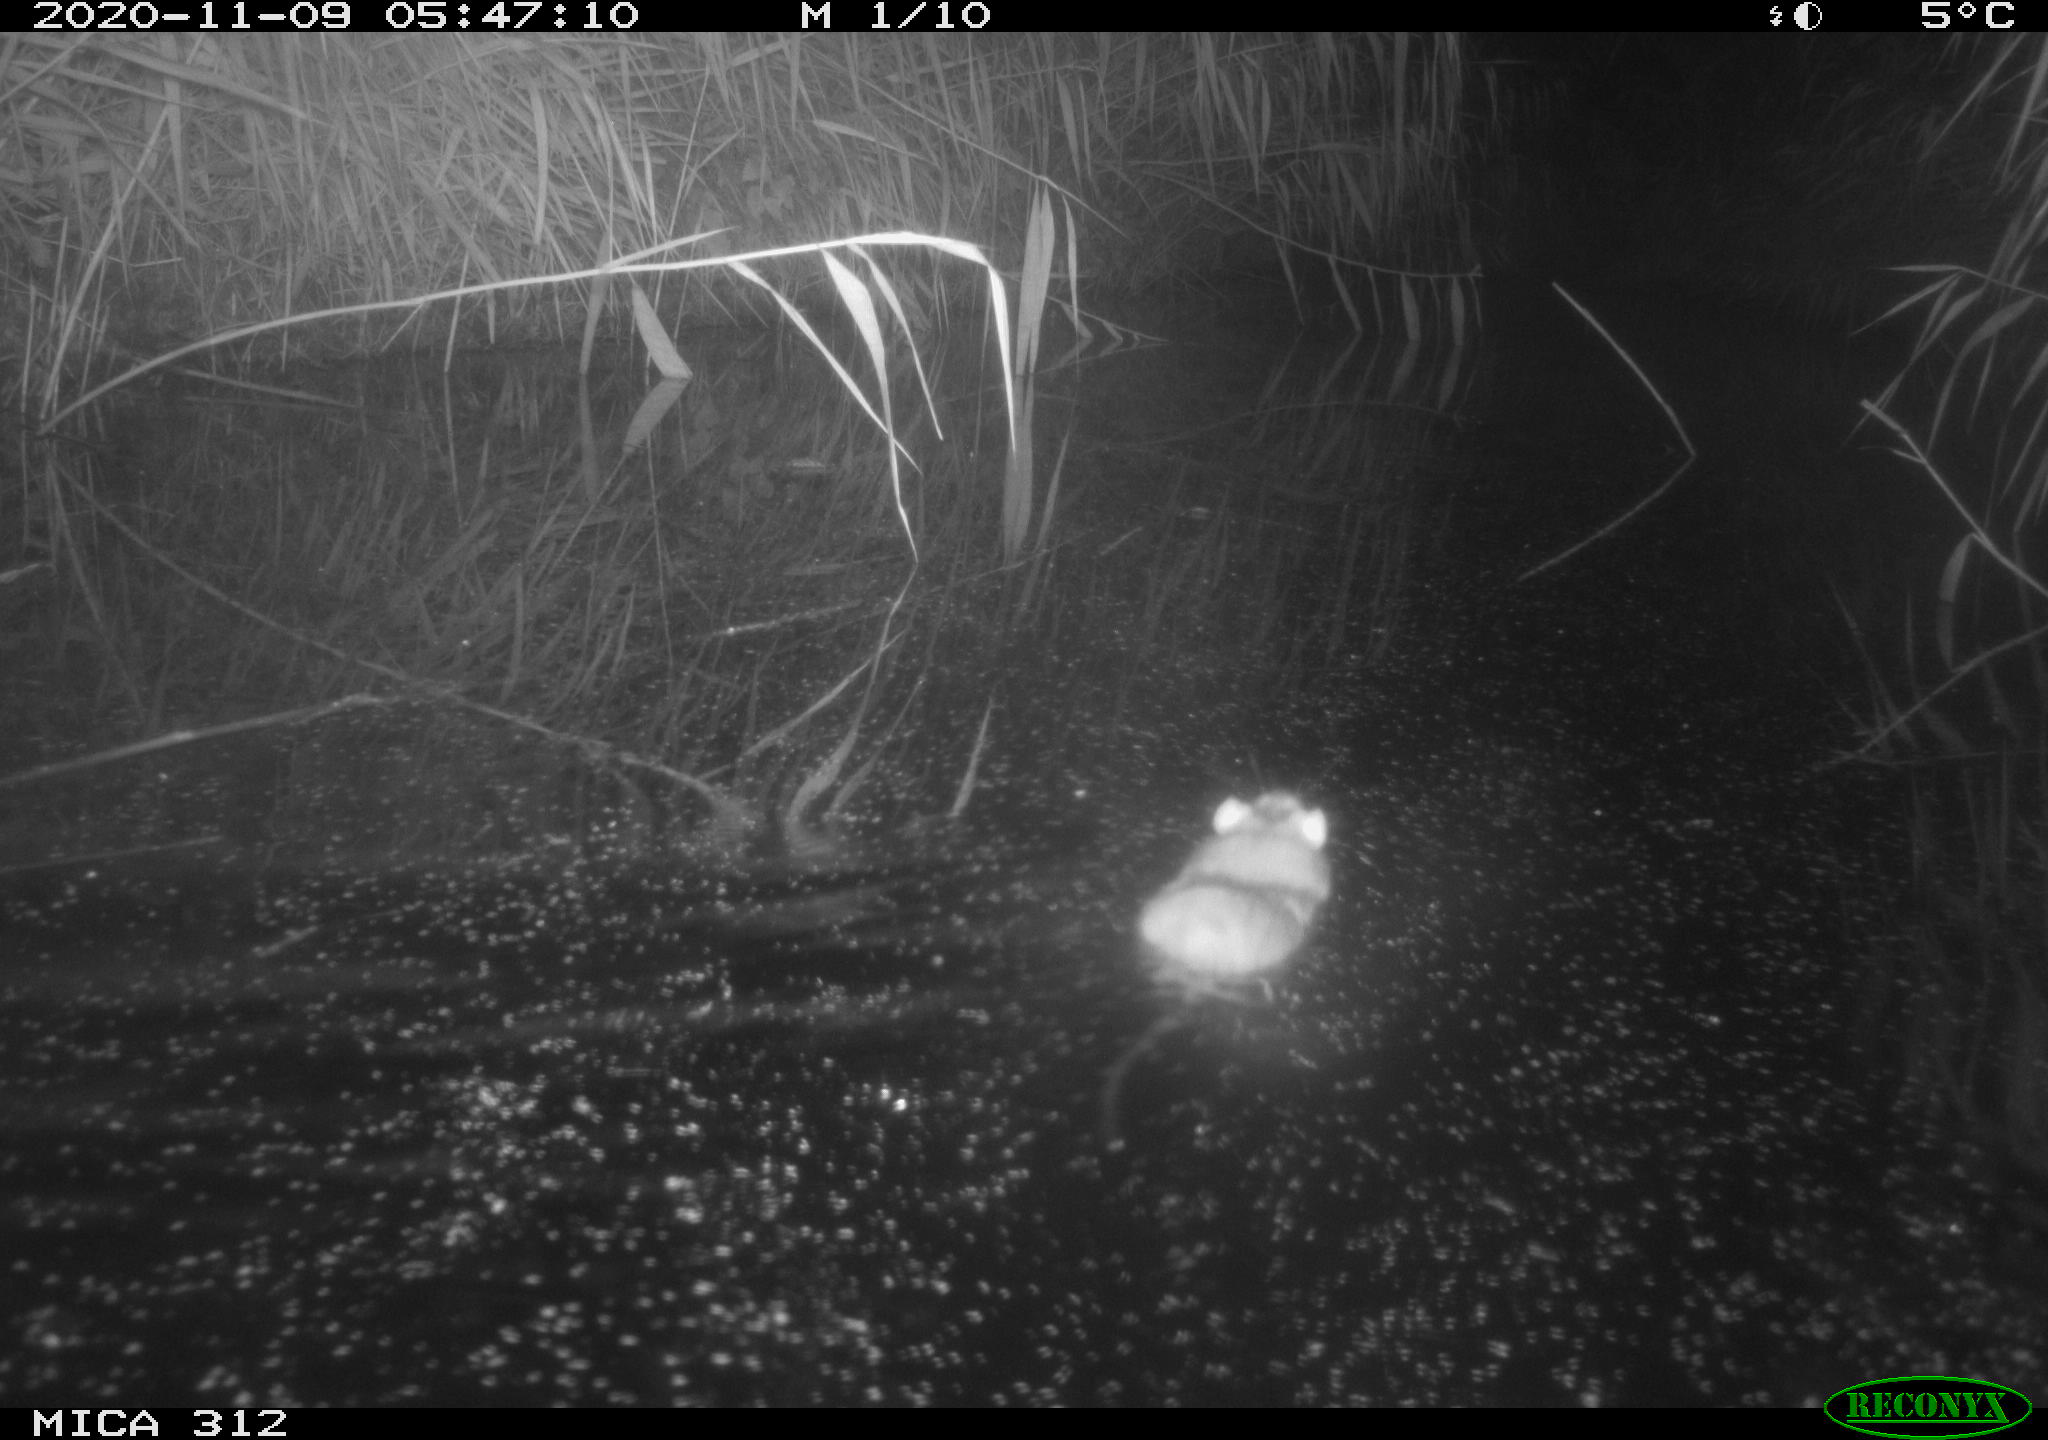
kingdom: Animalia
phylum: Chordata
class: Mammalia
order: Rodentia
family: Muridae
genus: Rattus
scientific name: Rattus norvegicus
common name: Brown rat
